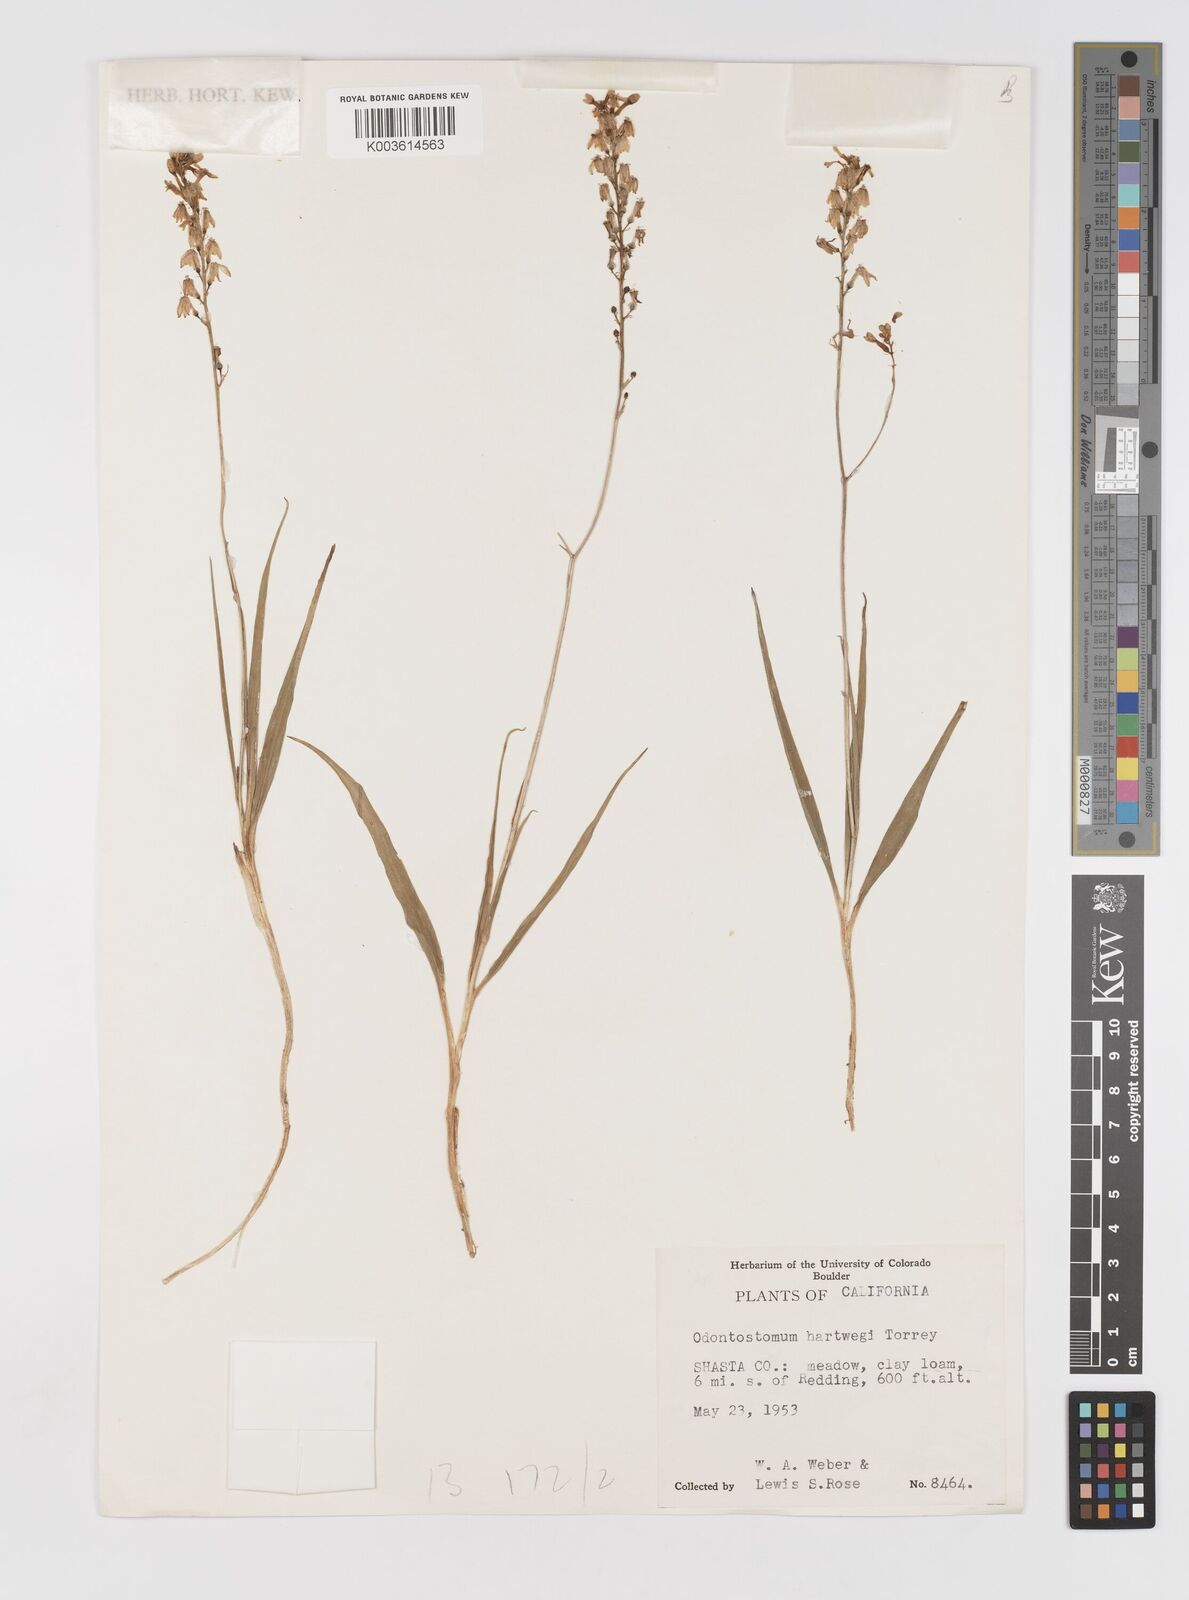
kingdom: Plantae
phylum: Tracheophyta
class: Liliopsida
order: Asparagales
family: Tecophilaeaceae
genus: Odontostomum
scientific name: Odontostomum hartwegii
